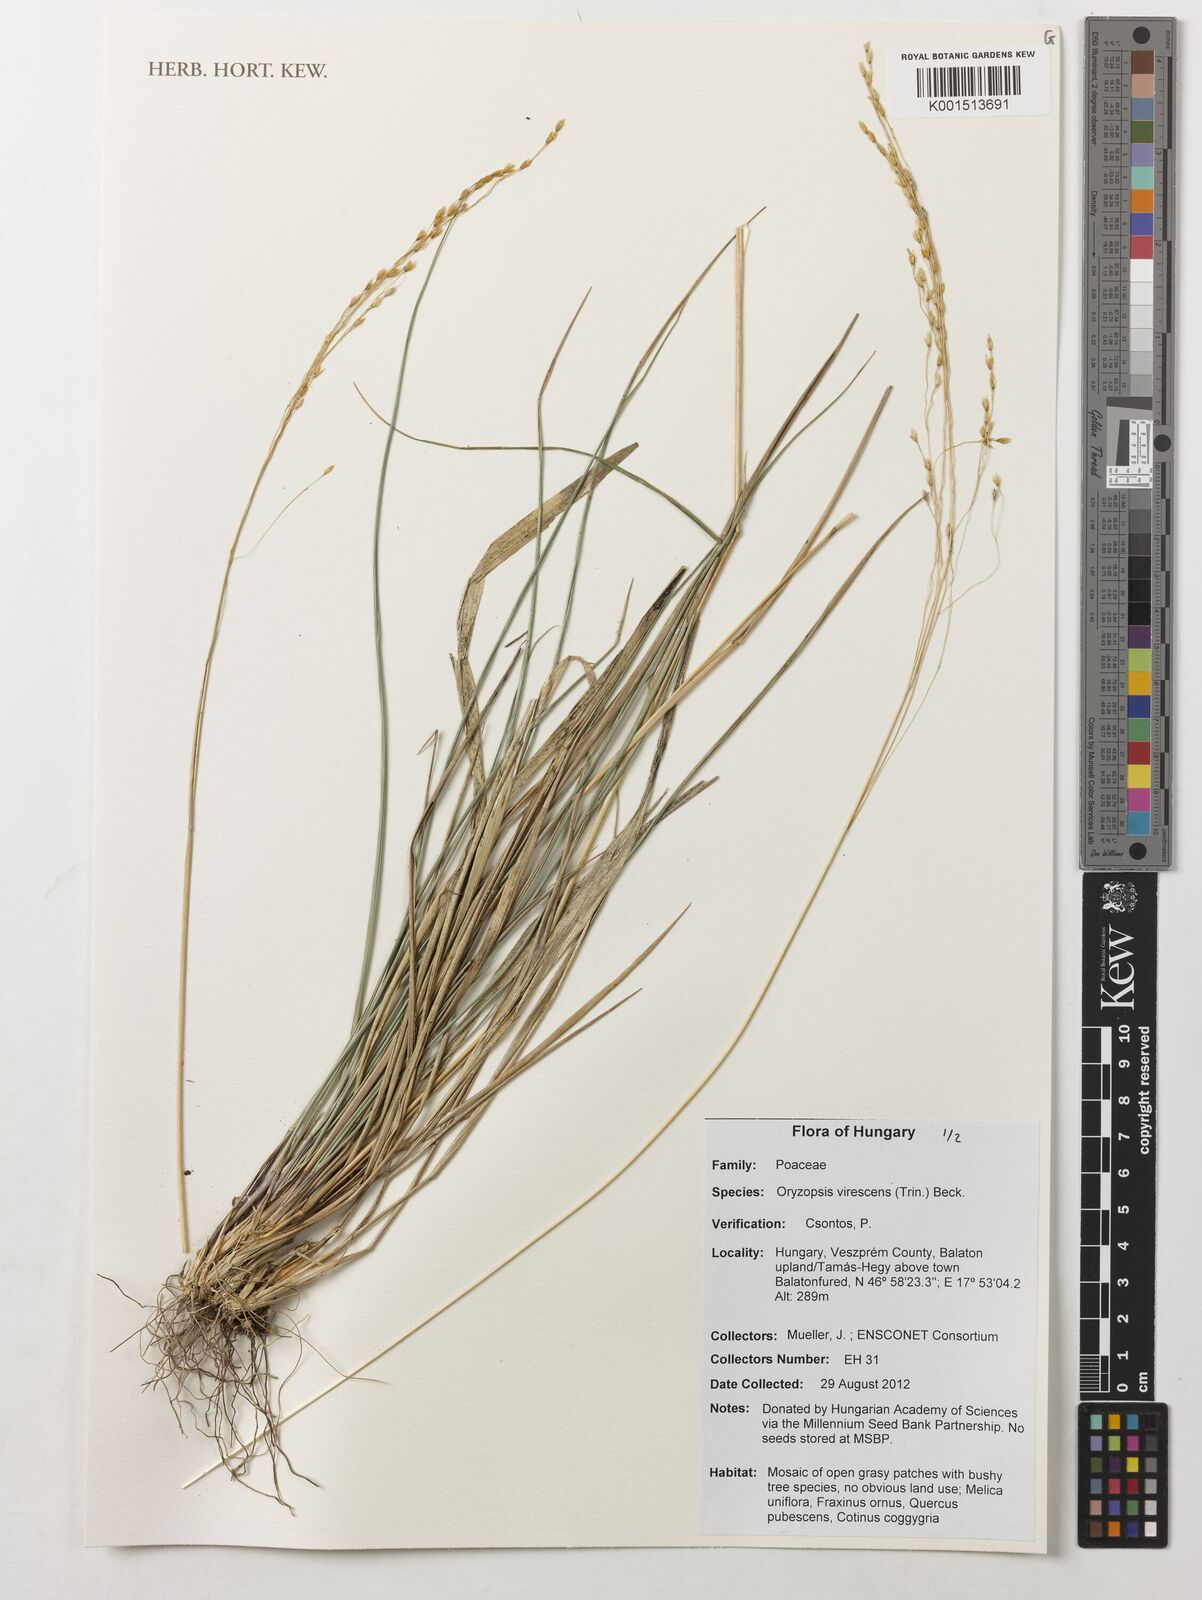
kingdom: Plantae
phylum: Tracheophyta
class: Liliopsida
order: Poales
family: Poaceae
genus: Achnatherum
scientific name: Achnatherum virescens
